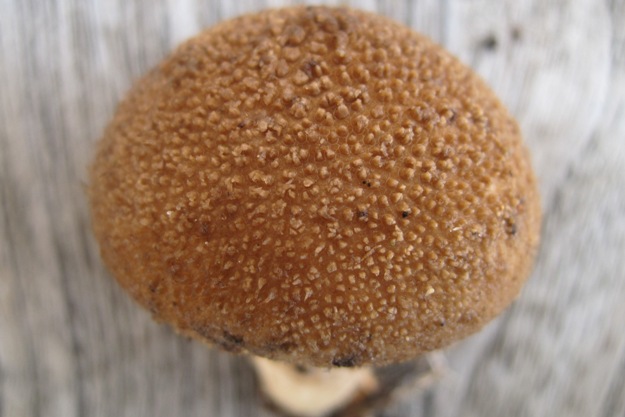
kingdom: Fungi
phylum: Basidiomycota
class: Agaricomycetes
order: Agaricales
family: Lycoperdaceae
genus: Lycoperdon
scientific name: Lycoperdon umbrinum
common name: umbrabrun støvbold
